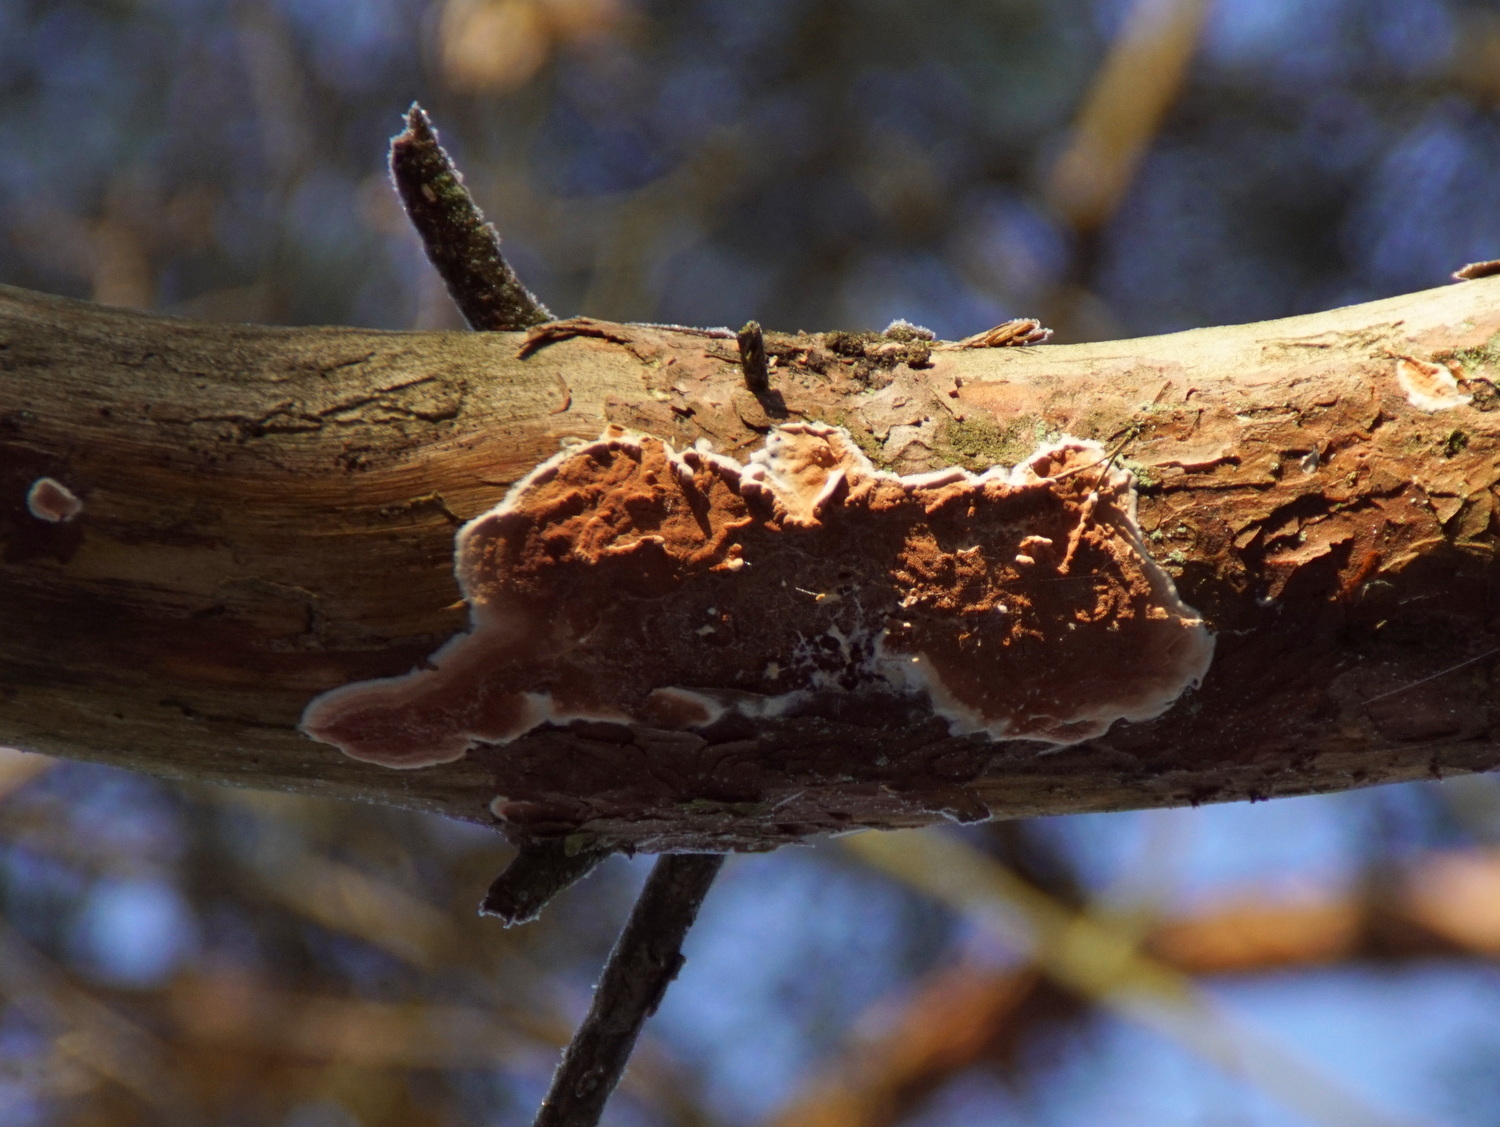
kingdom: Fungi
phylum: Basidiomycota
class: Agaricomycetes
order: Polyporales
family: Irpicaceae
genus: Meruliopsis
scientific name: Meruliopsis taxicola
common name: purpurbrun foldporesvamp
